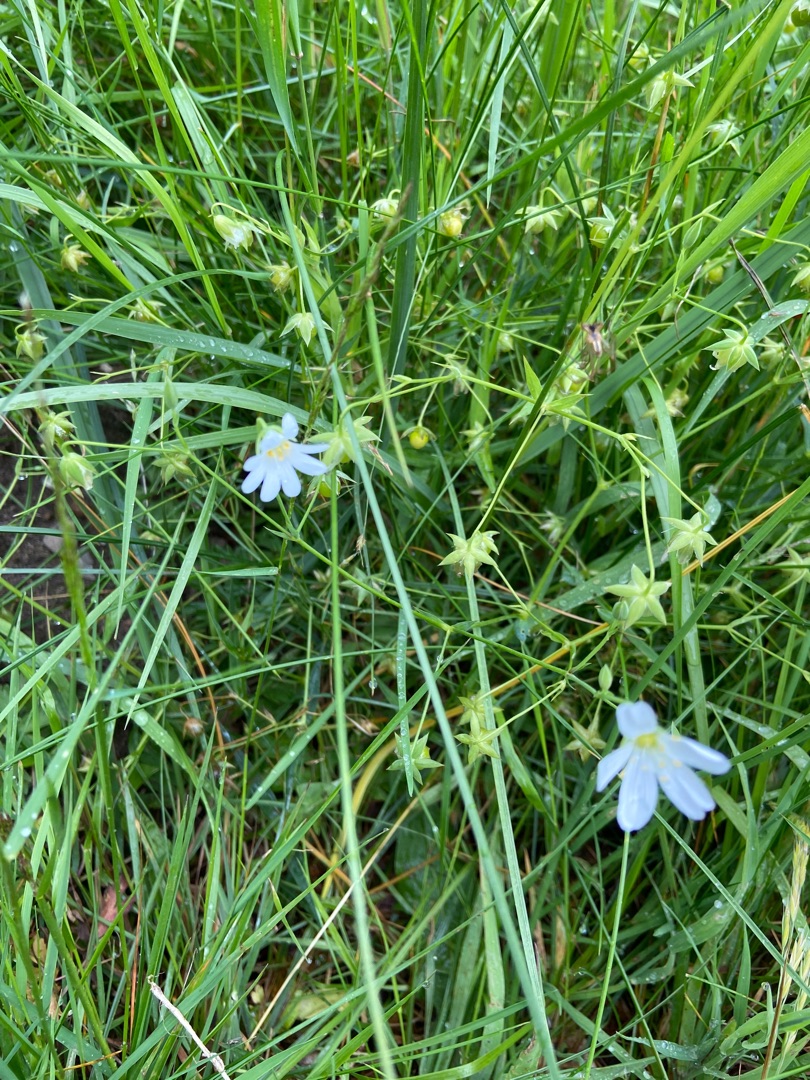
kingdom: Plantae
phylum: Tracheophyta
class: Magnoliopsida
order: Caryophyllales
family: Caryophyllaceae
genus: Rabelera
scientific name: Rabelera holostea
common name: Stor fladstjerne
